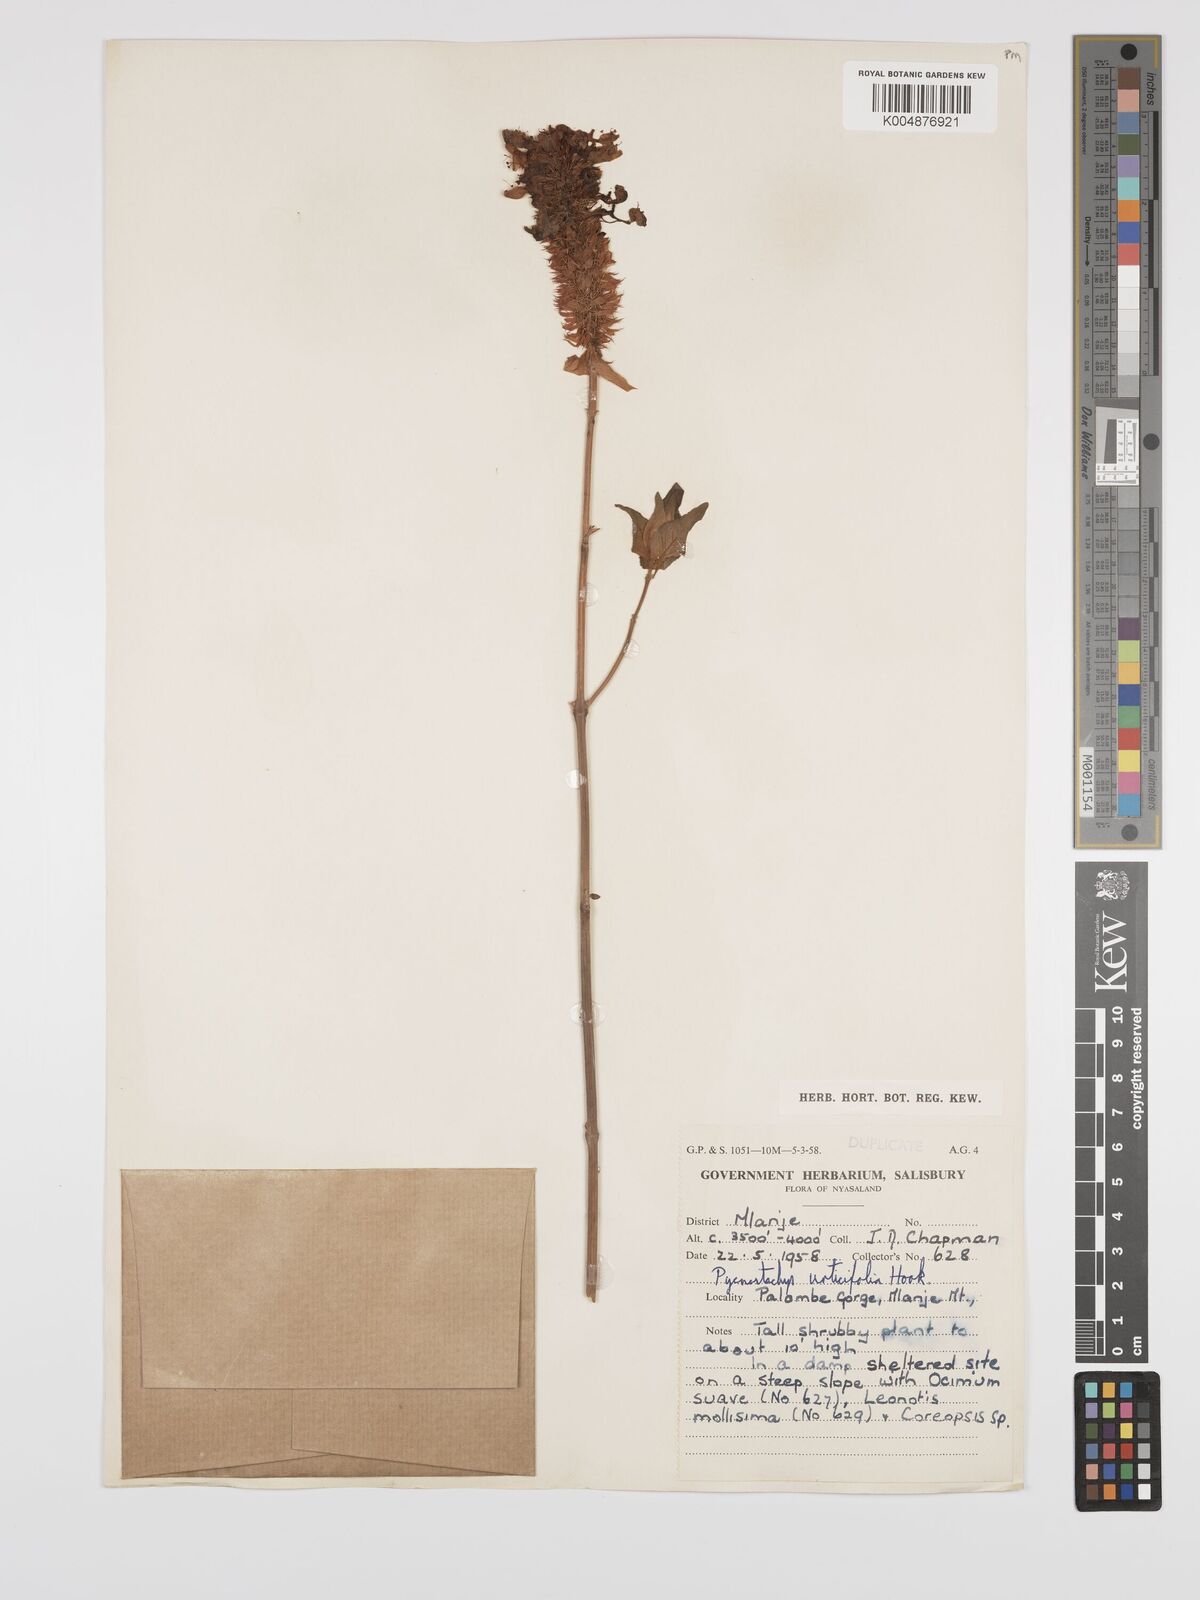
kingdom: Plantae
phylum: Tracheophyta
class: Magnoliopsida
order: Lamiales
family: Lamiaceae
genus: Coleus
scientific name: Coleus livingstonei
